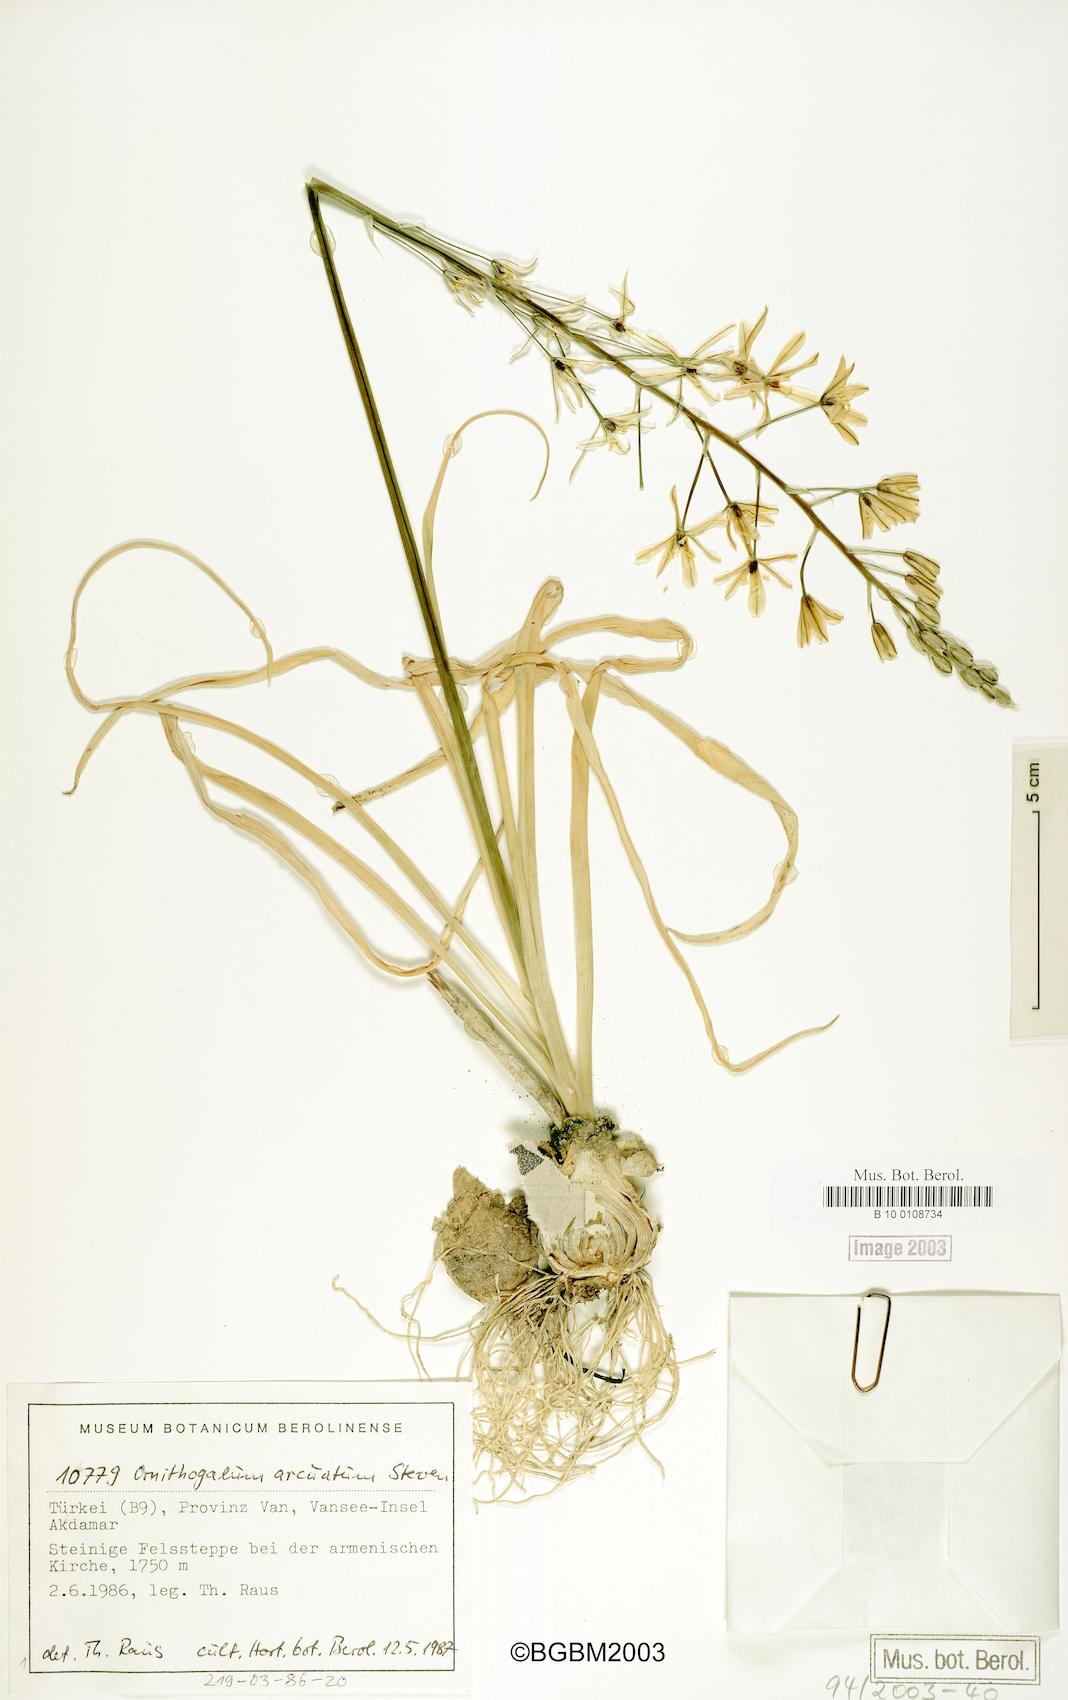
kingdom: Plantae
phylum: Tracheophyta
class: Liliopsida
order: Asparagales
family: Asparagaceae
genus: Ornithogalum
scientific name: Ornithogalum arcuatum
